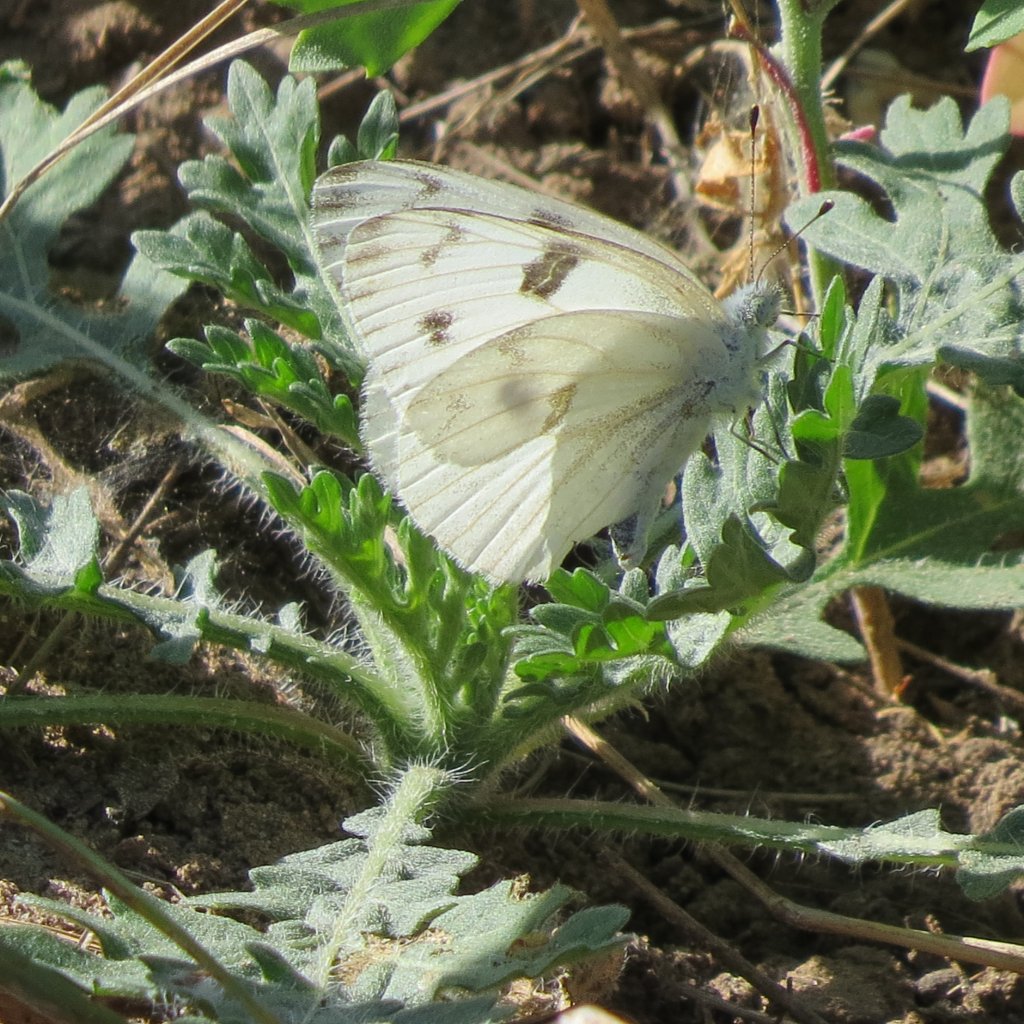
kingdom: Animalia
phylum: Arthropoda
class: Insecta
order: Lepidoptera
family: Pieridae
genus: Pontia
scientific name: Pontia protodice
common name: Checkered White
